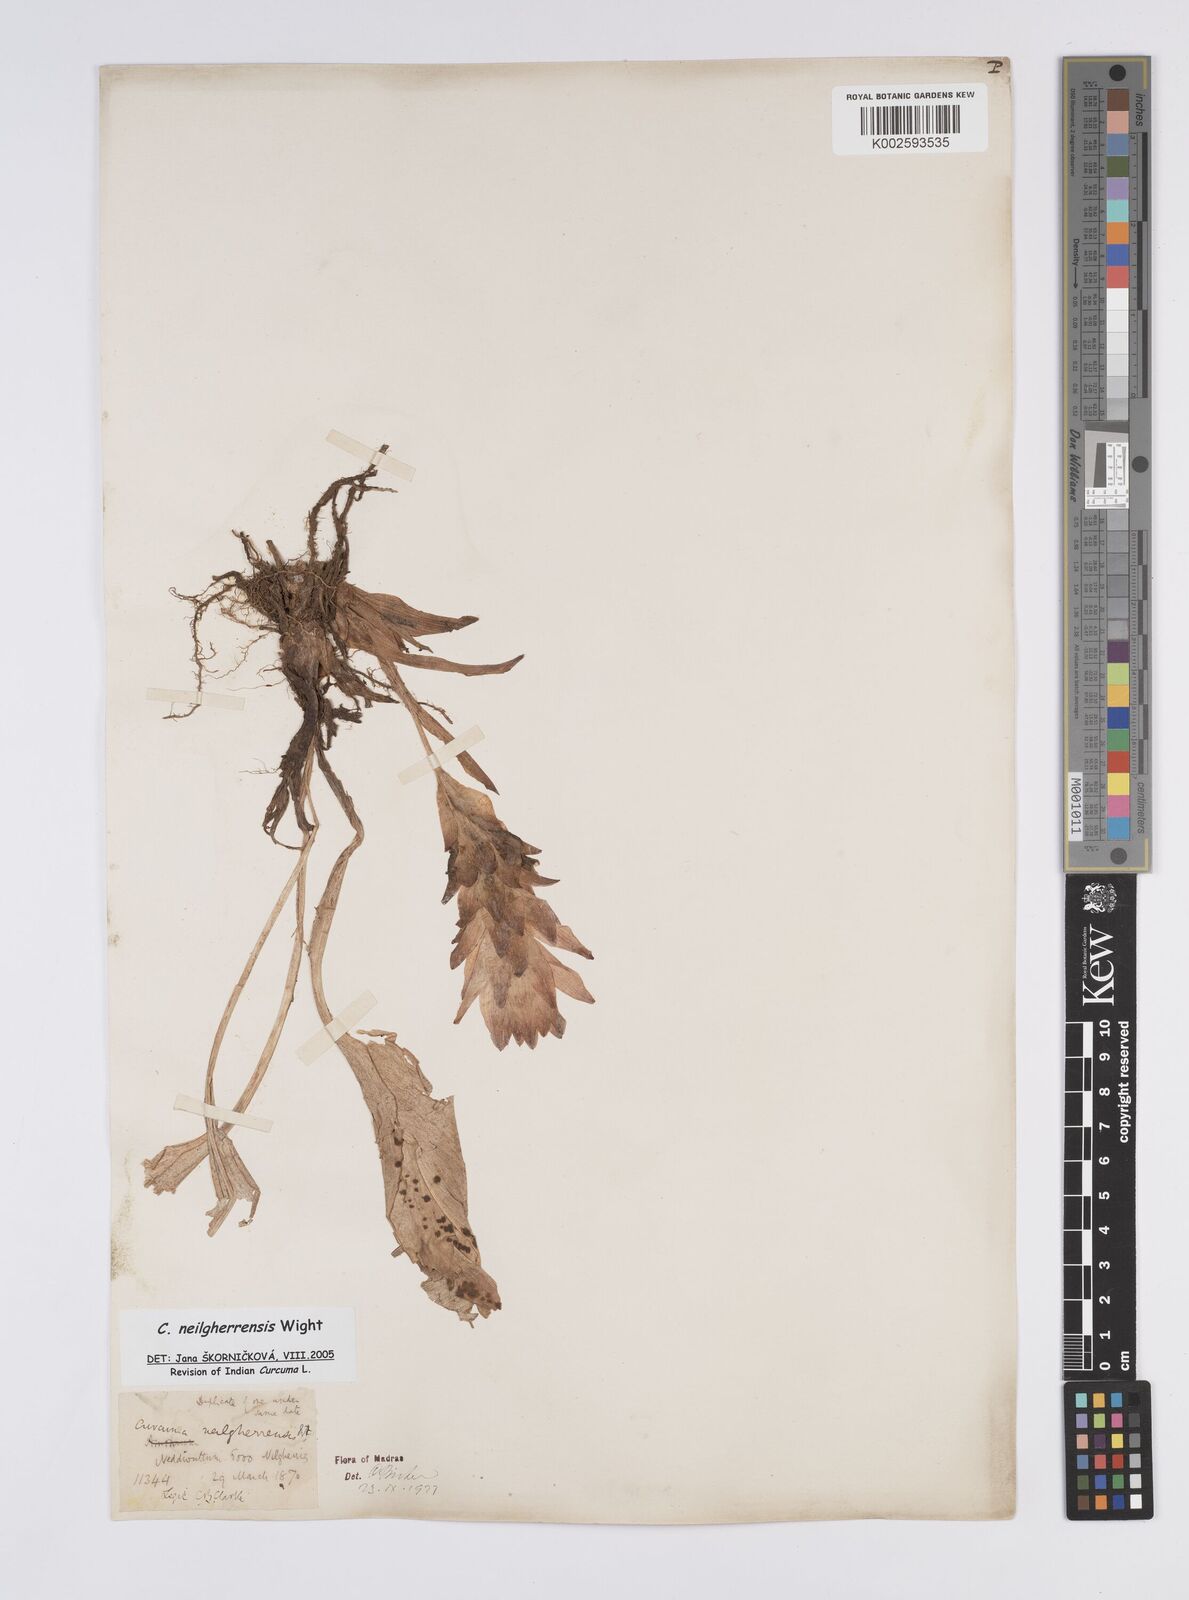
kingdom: Plantae
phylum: Tracheophyta
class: Liliopsida
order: Zingiberales
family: Zingiberaceae
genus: Curcuma
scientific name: Curcuma neilgherrensis
